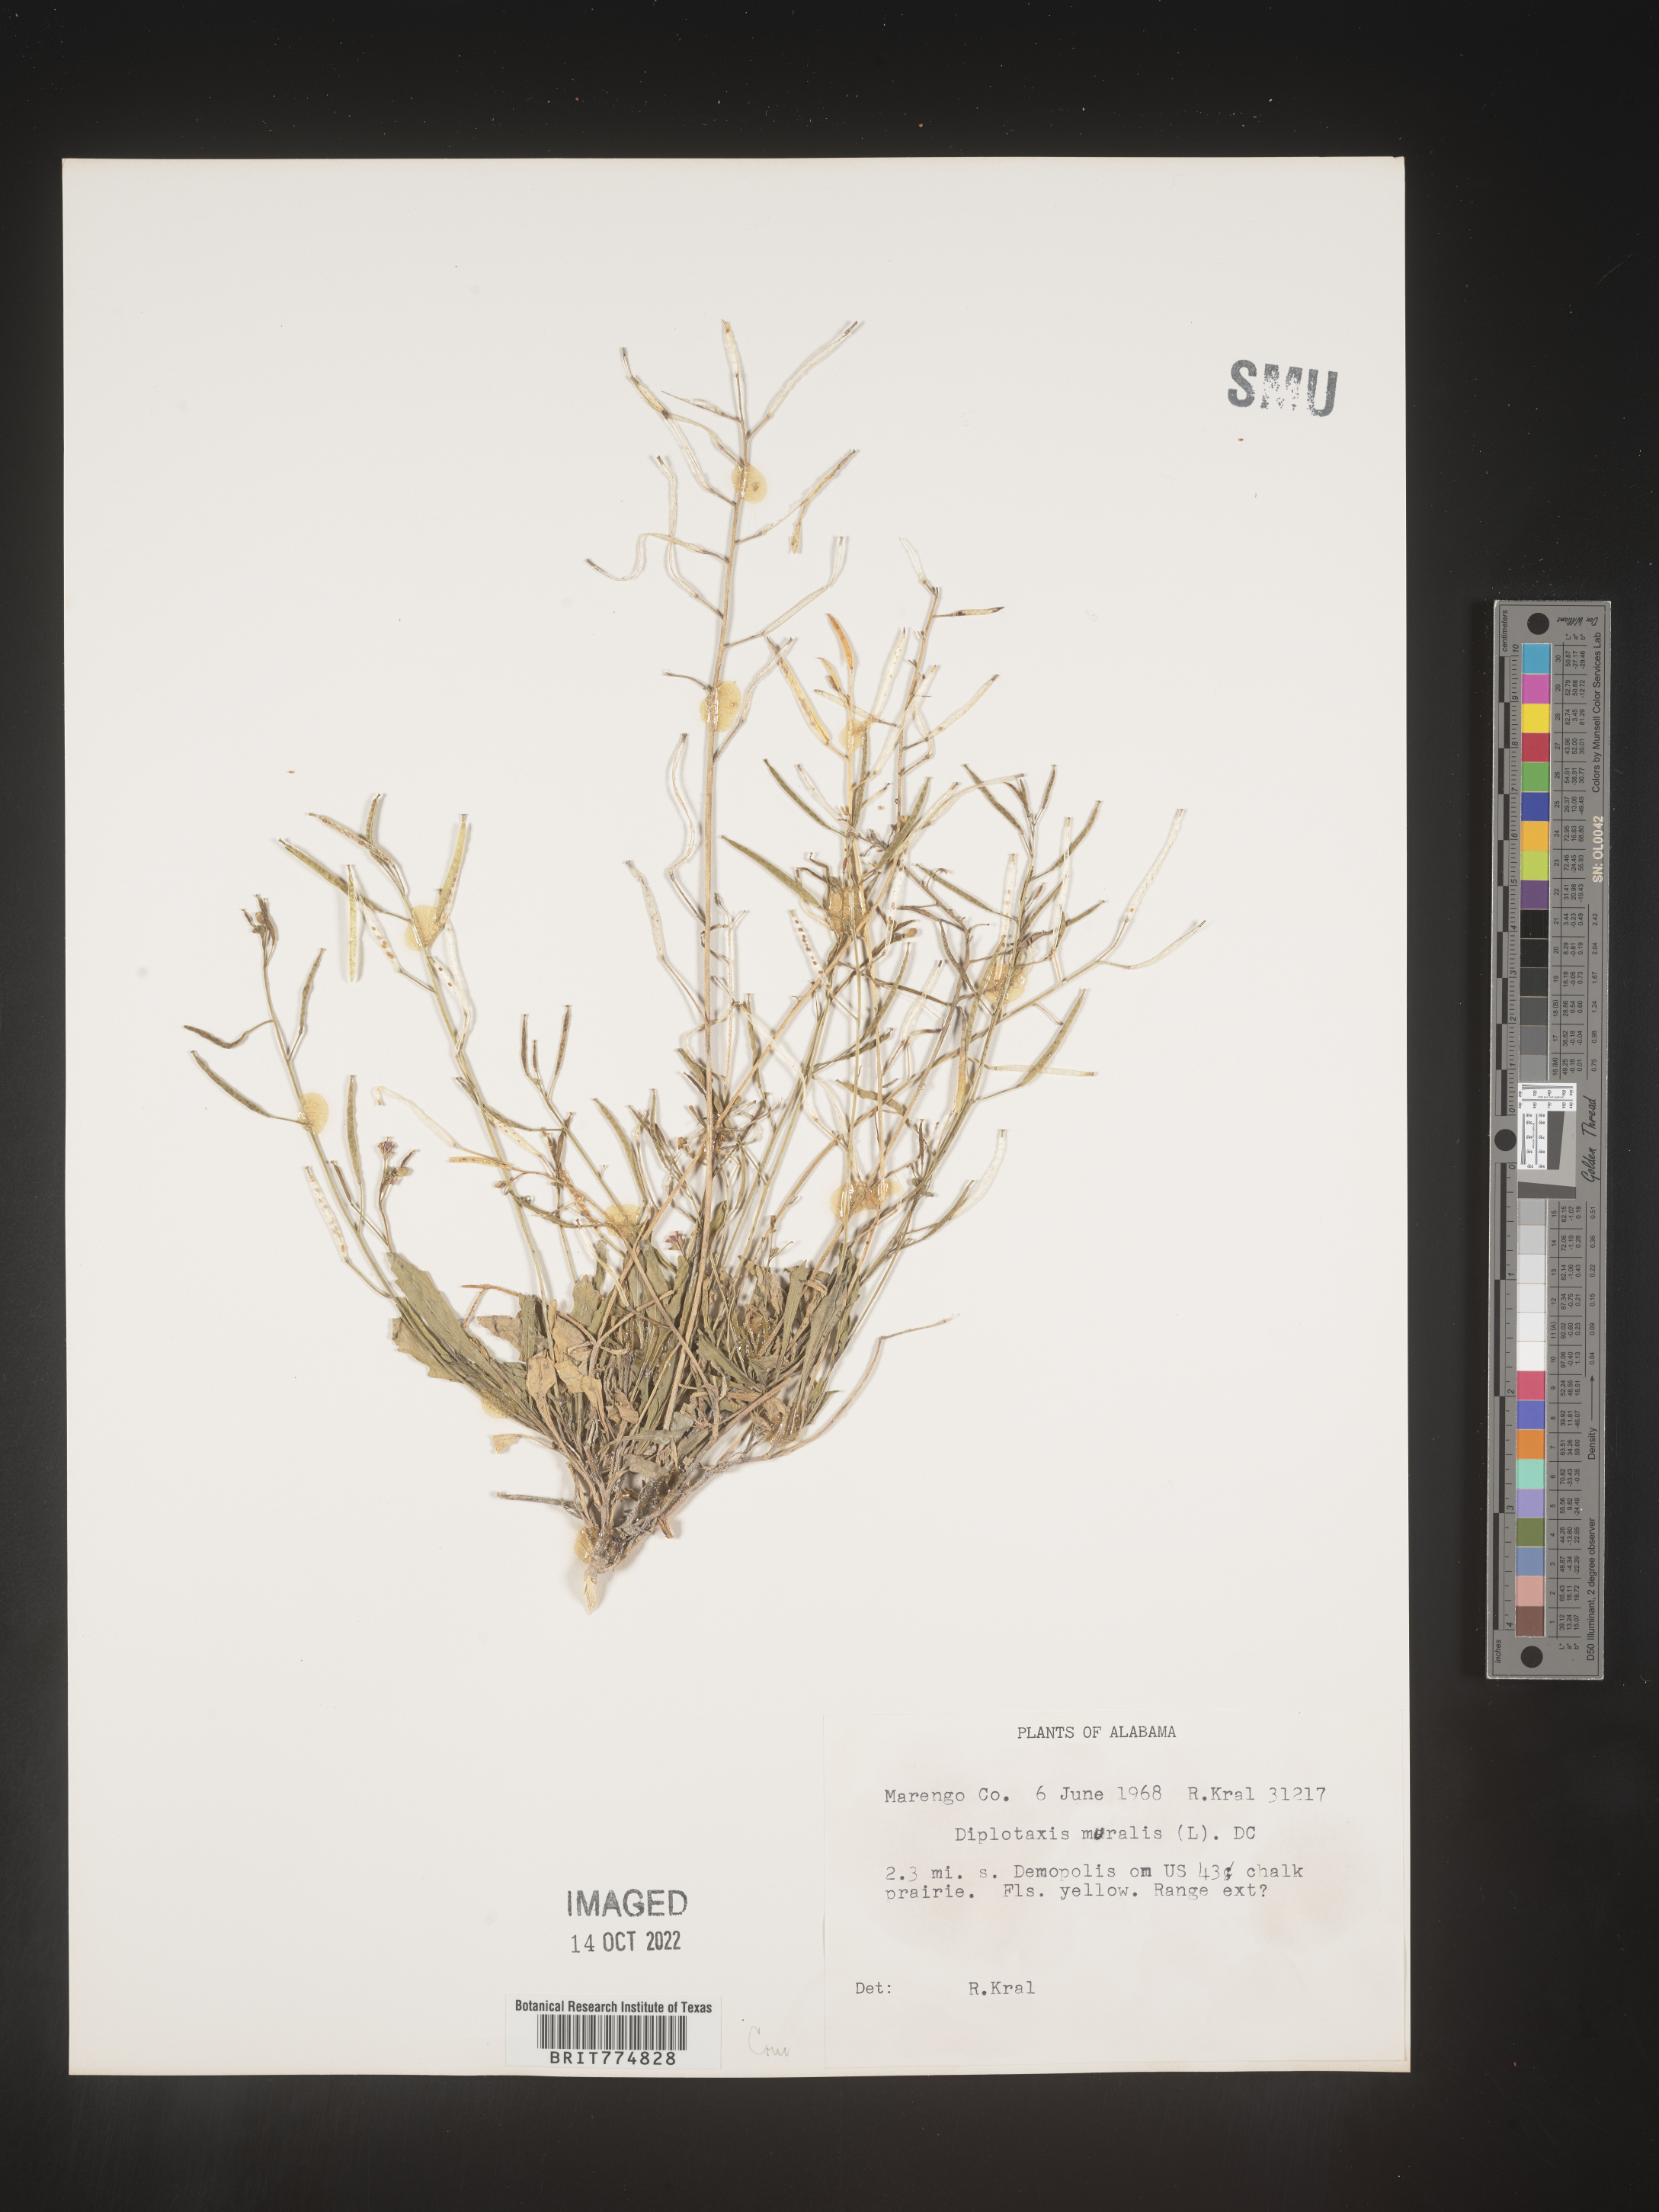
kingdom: Plantae
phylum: Tracheophyta
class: Magnoliopsida
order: Brassicales
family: Brassicaceae
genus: Diplotaxis
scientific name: Diplotaxis
